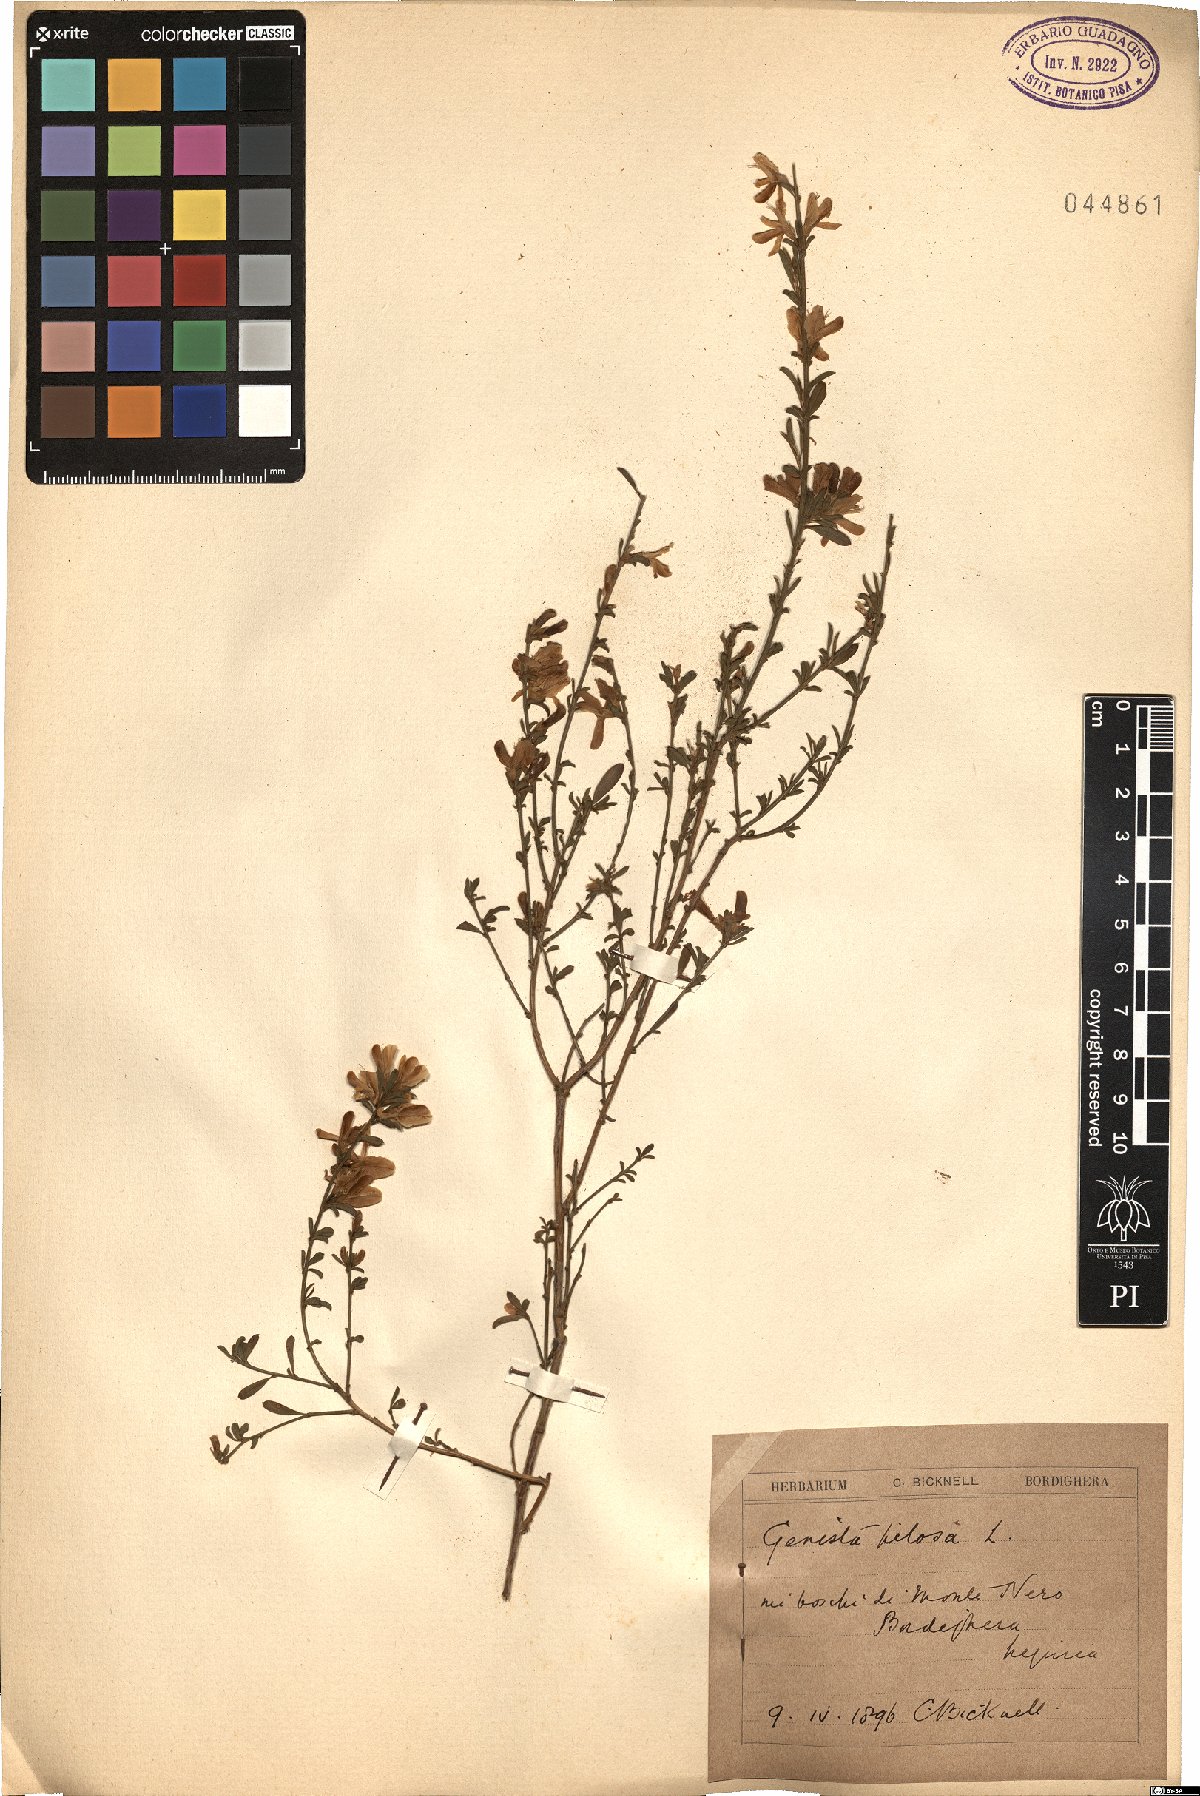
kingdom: Plantae
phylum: Tracheophyta
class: Magnoliopsida
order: Fabales
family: Fabaceae
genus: Genista
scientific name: Genista pilosa
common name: Hairy greenweed
